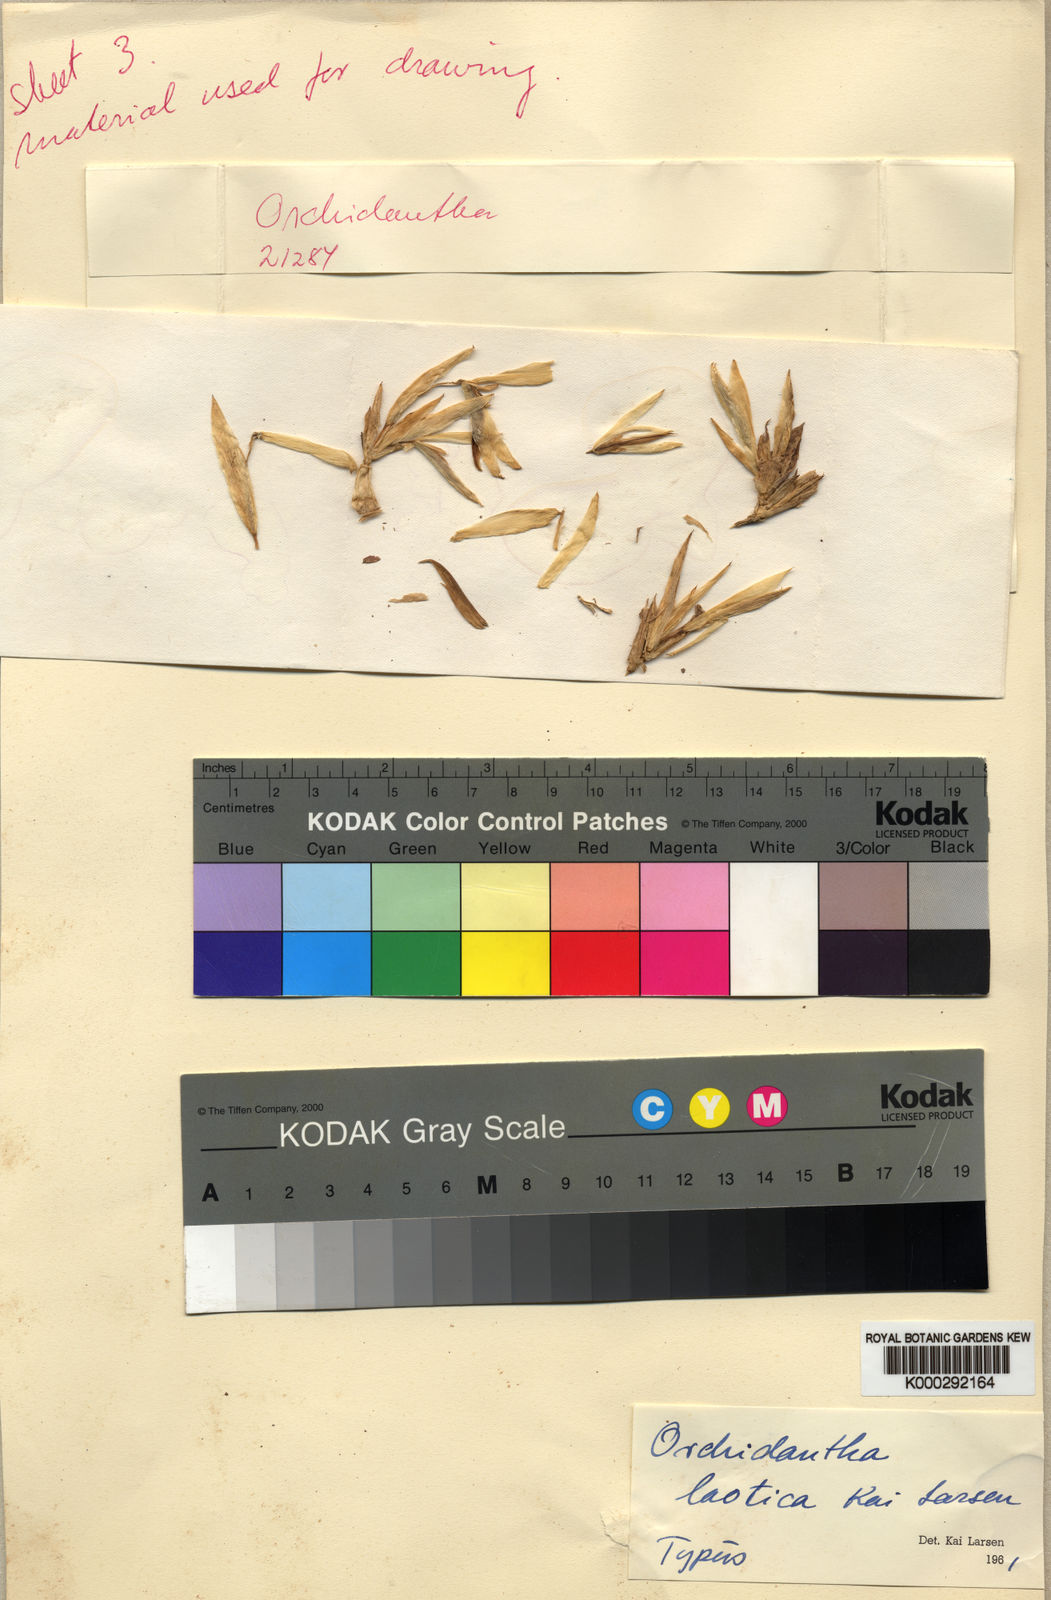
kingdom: Plantae
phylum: Tracheophyta
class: Liliopsida
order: Zingiberales
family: Lowiaceae
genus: Orchidantha
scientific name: Orchidantha laotica
